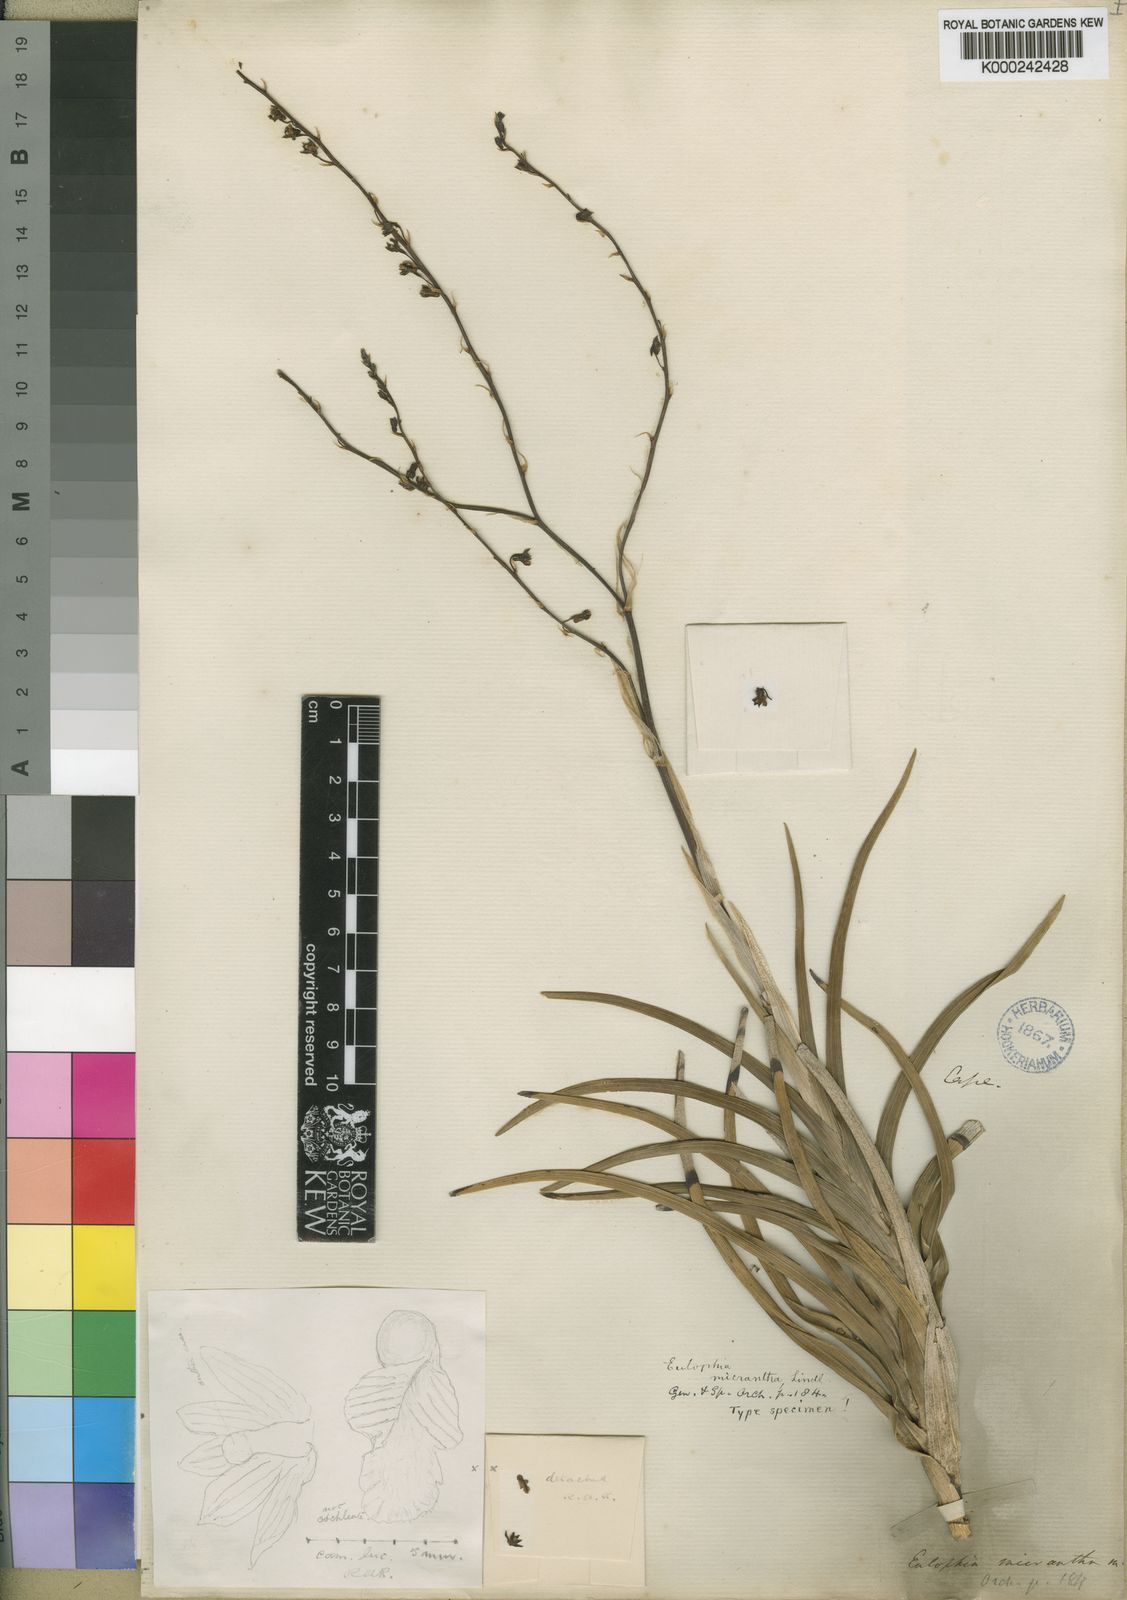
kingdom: Plantae
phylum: Tracheophyta
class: Liliopsida
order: Asparagales
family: Orchidaceae
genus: Eulophia
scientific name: Eulophia
